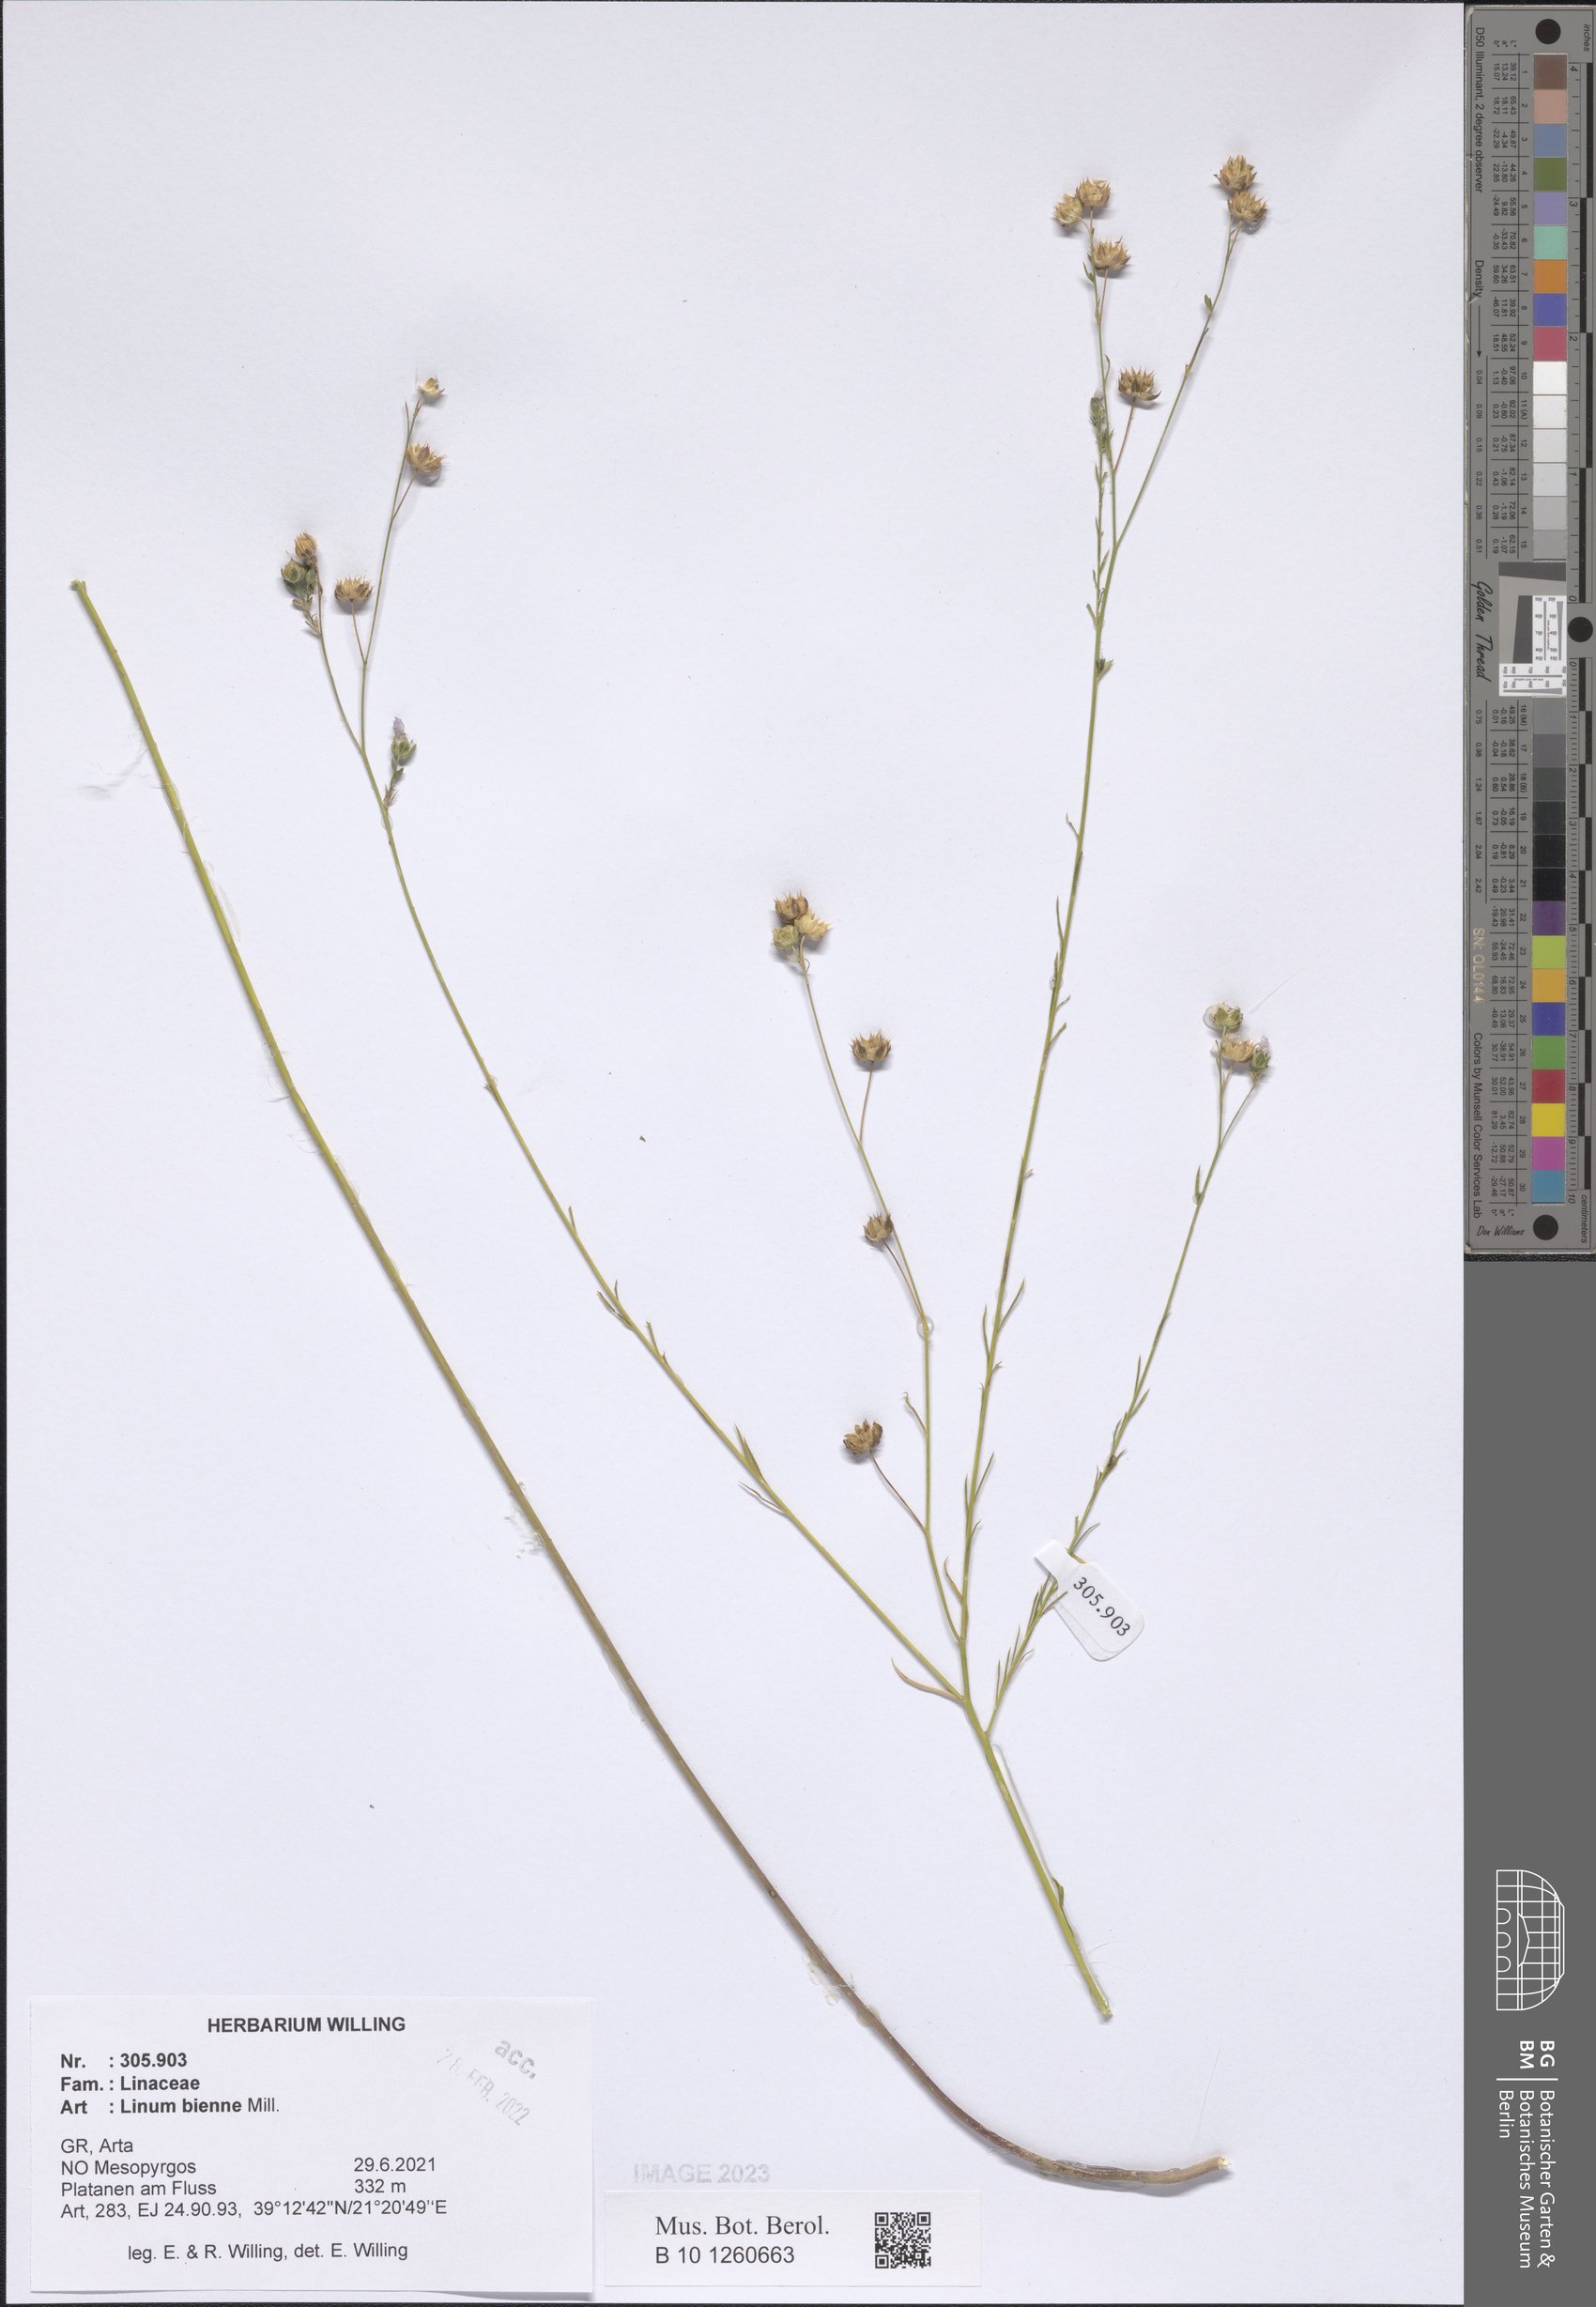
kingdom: Plantae
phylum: Tracheophyta
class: Magnoliopsida
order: Malpighiales
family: Linaceae
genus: Linum
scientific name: Linum bienne
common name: Pale flax
